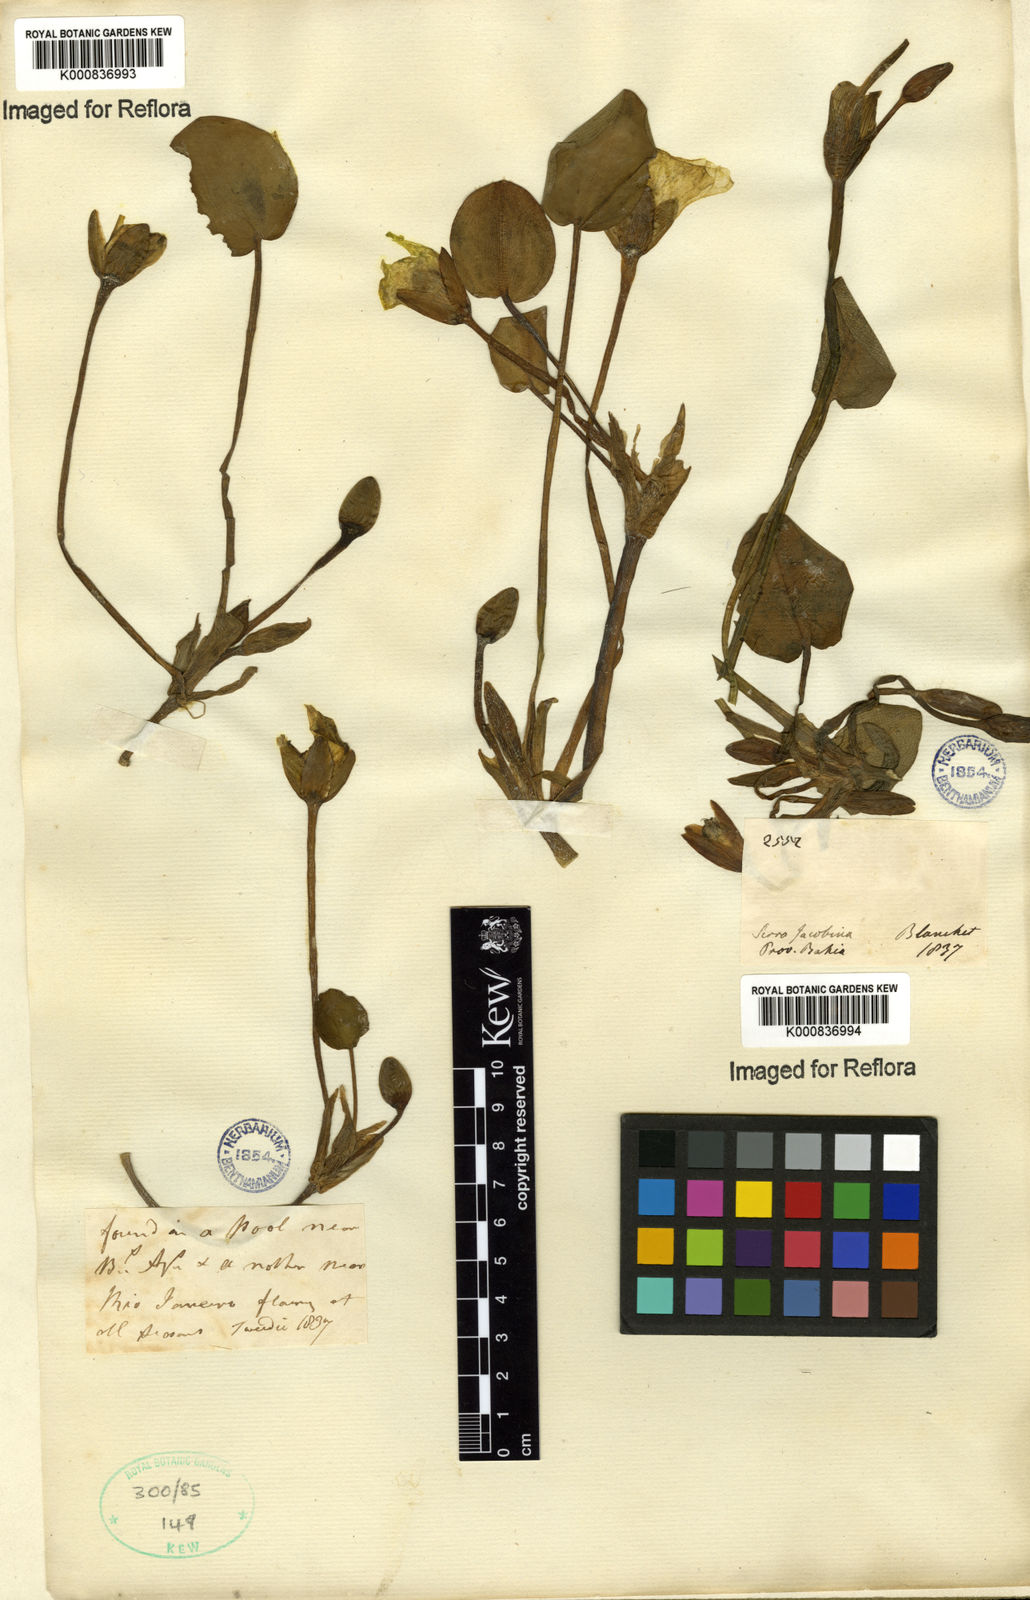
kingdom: Plantae
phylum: Tracheophyta
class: Liliopsida
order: Alismatales
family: Alismataceae
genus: Hydrocleys
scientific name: Hydrocleys nymphoides
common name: Water-poppy
